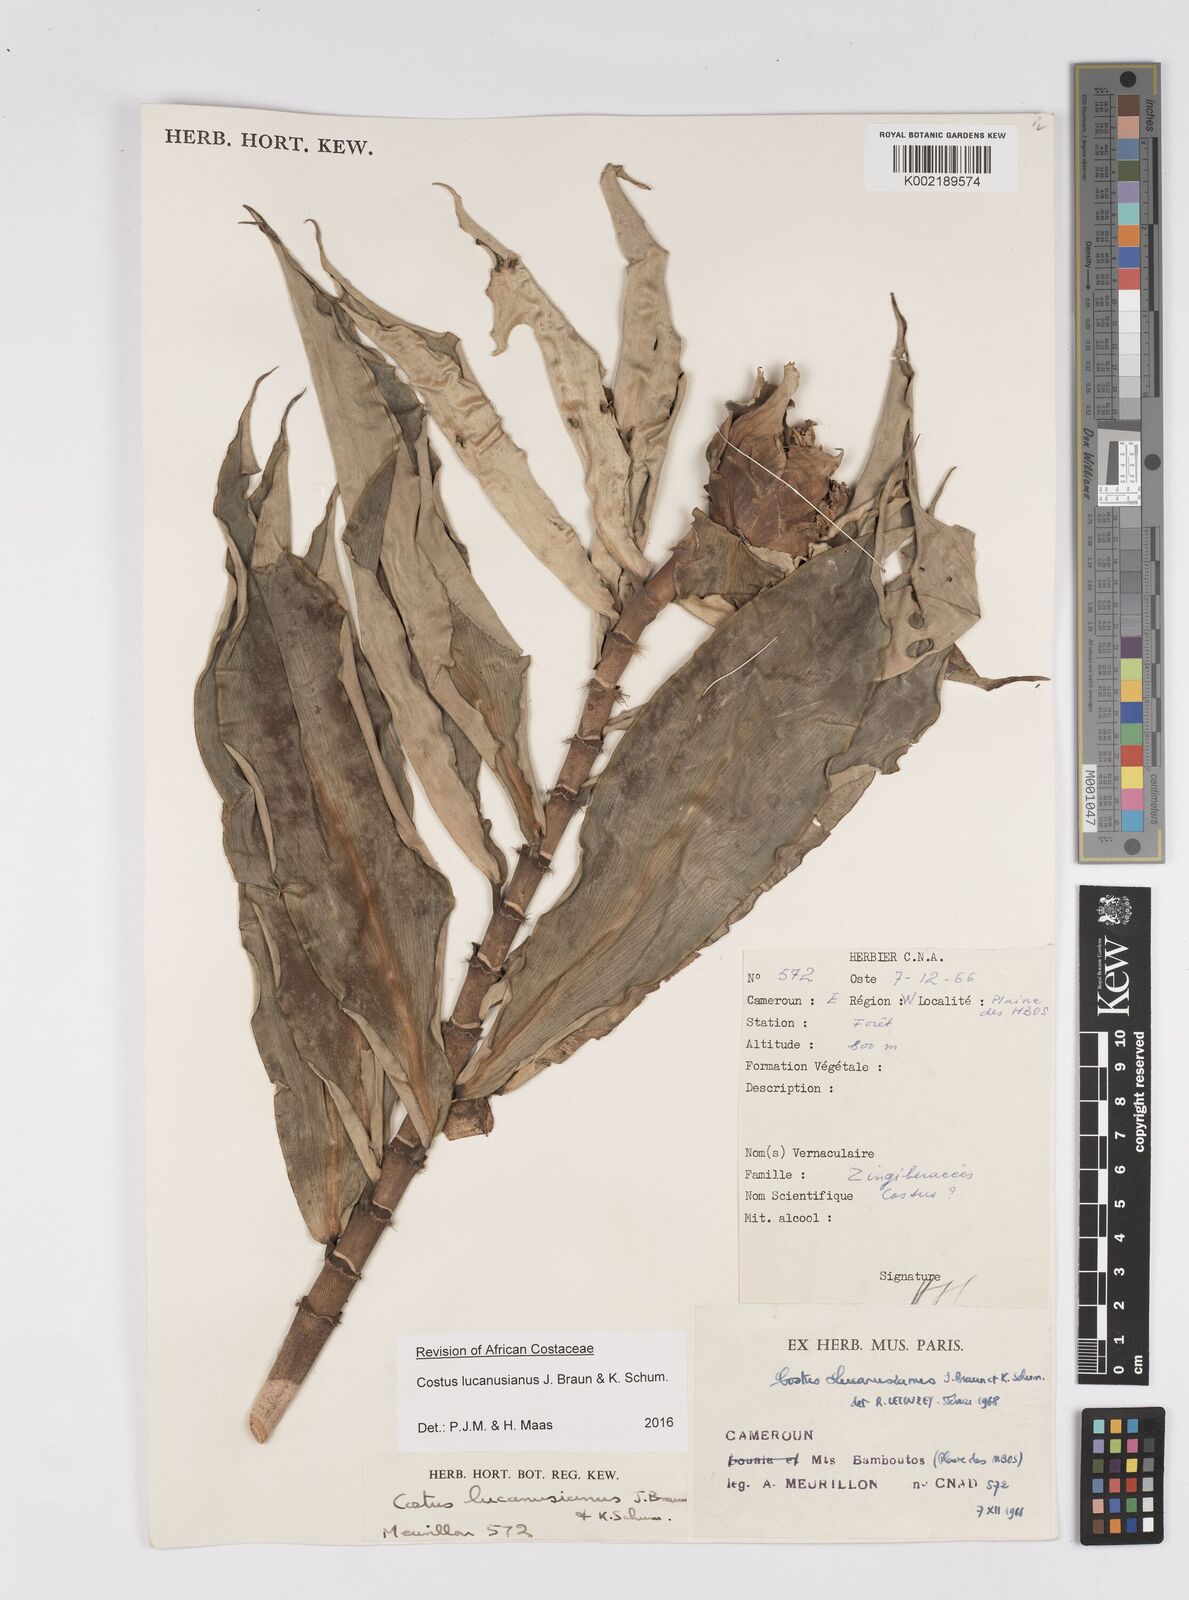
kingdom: Plantae
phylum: Tracheophyta
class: Liliopsida
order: Zingiberales
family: Costaceae
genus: Costus
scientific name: Costus lucanusianus
